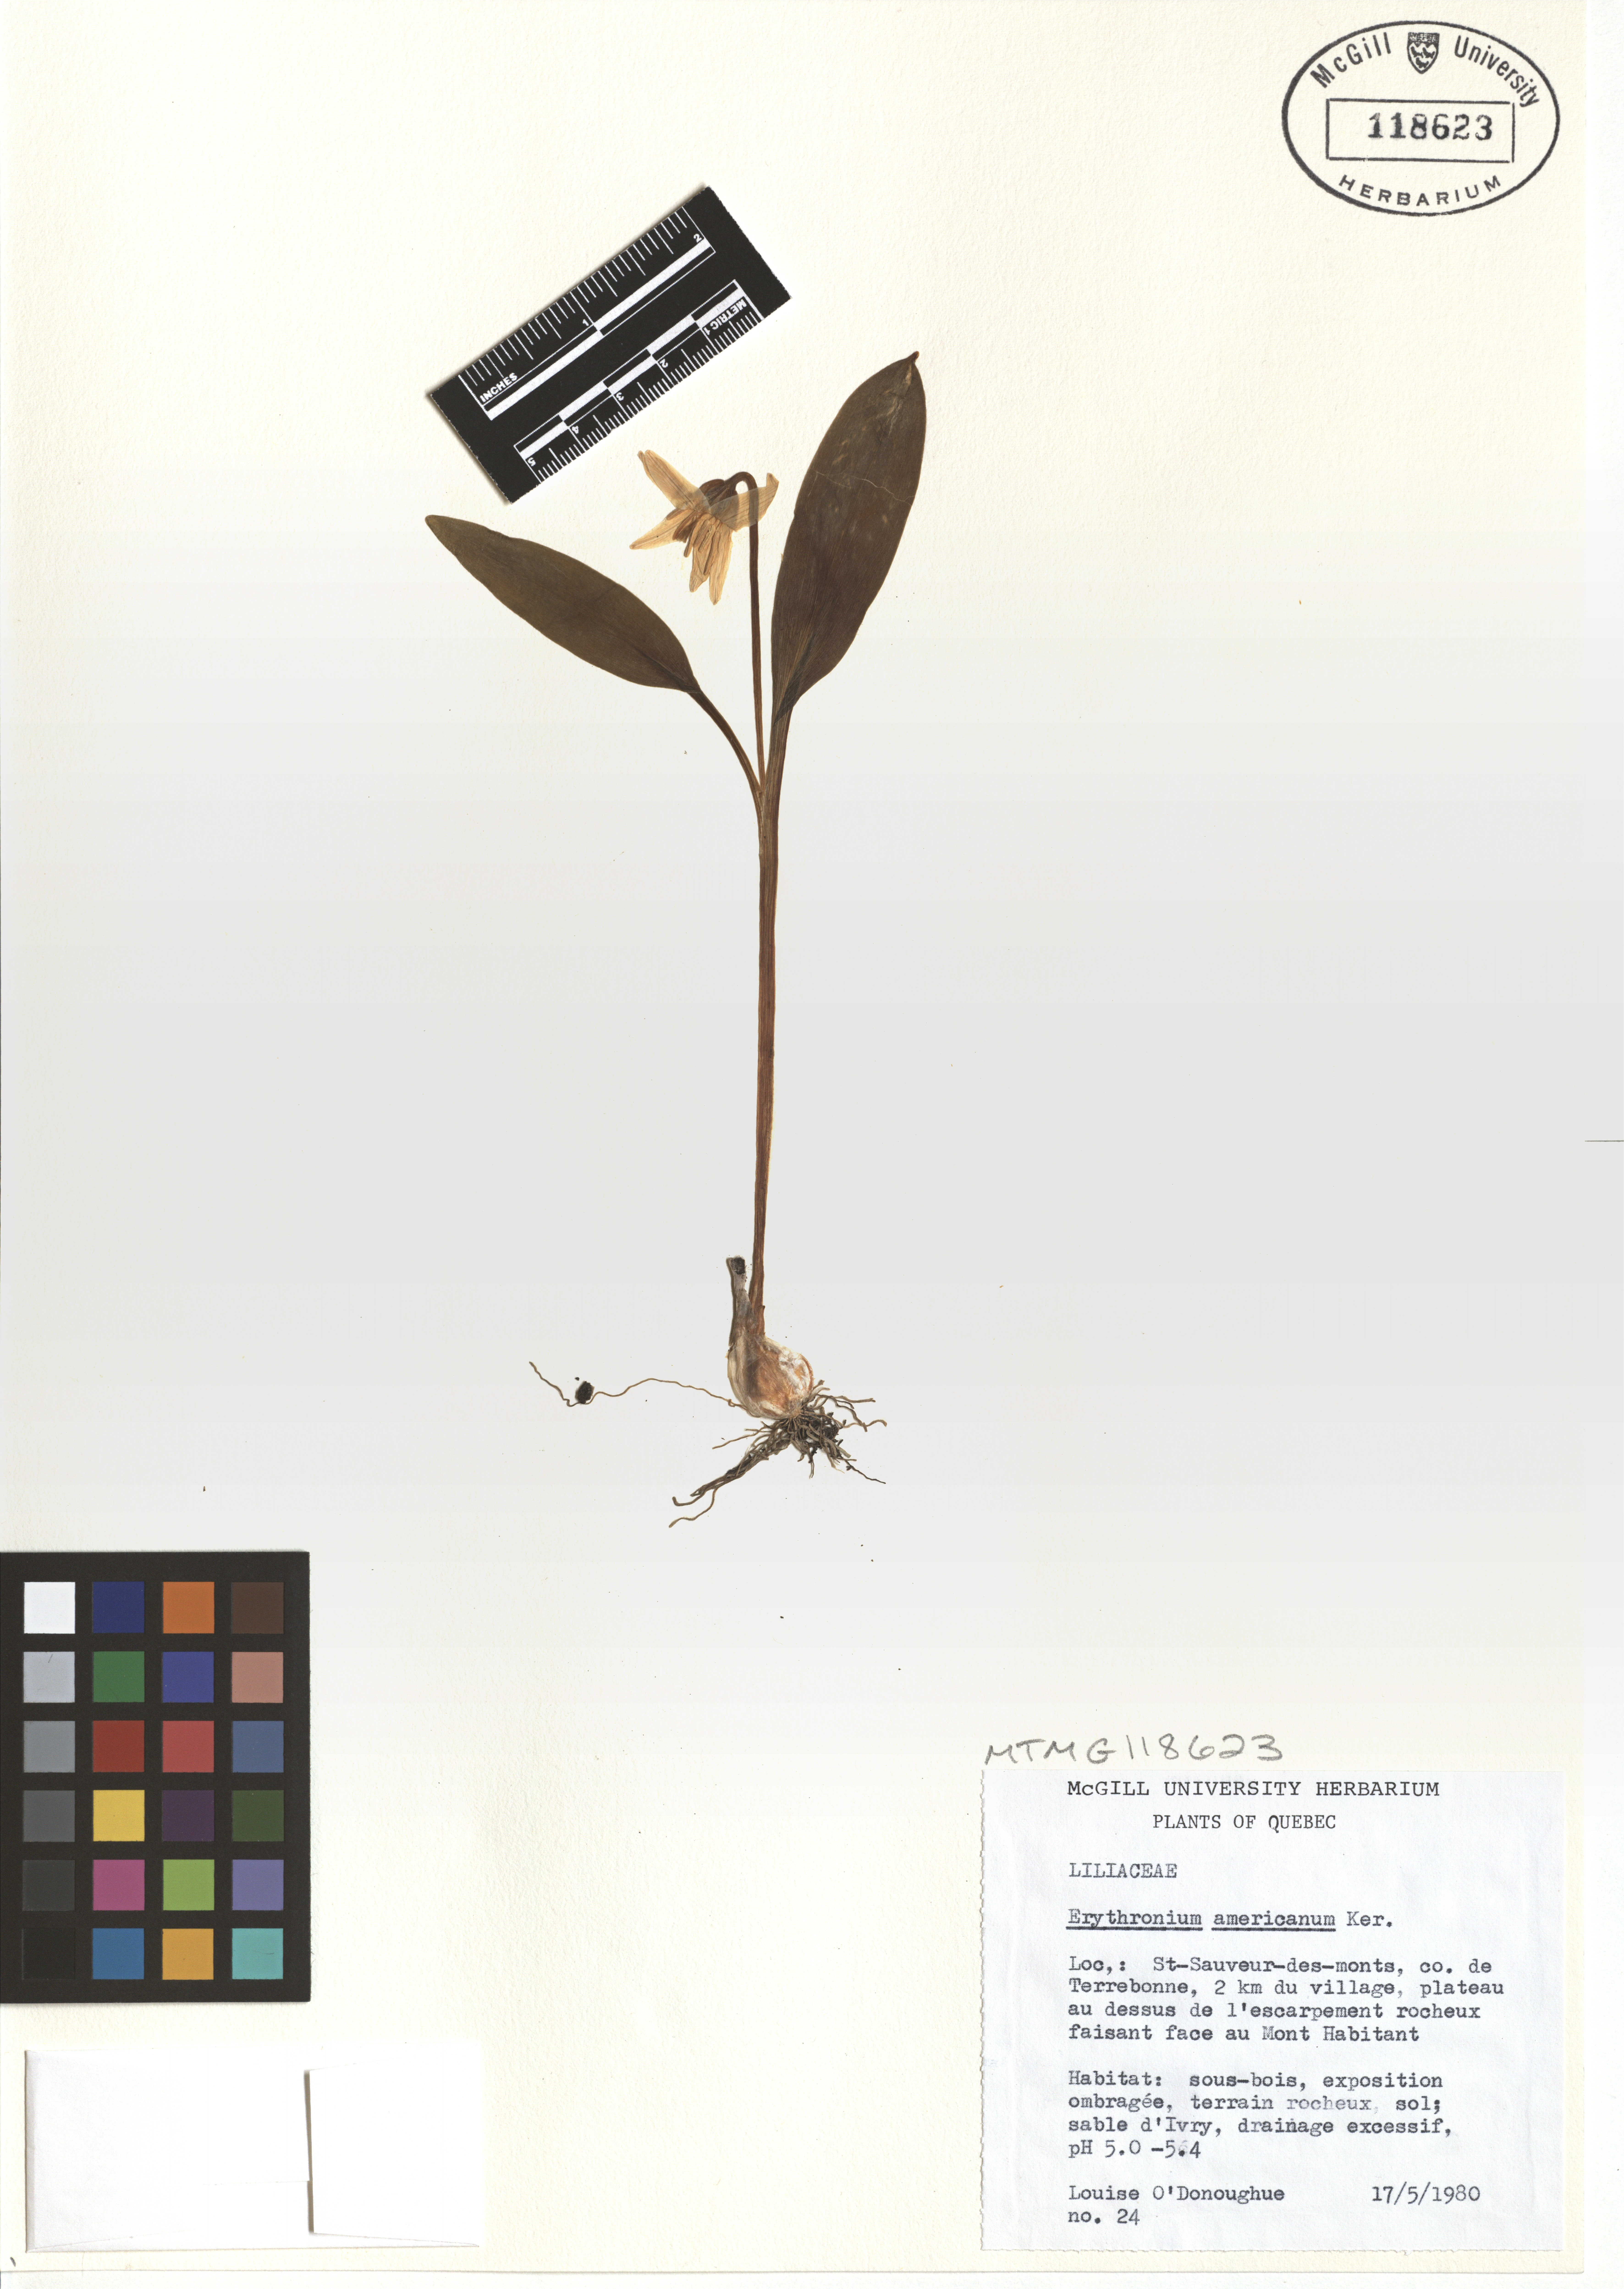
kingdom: Plantae
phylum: Tracheophyta
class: Liliopsida
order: Liliales
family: Liliaceae
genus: Erythronium
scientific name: Erythronium americanum
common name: Yellow adder's-tongue
